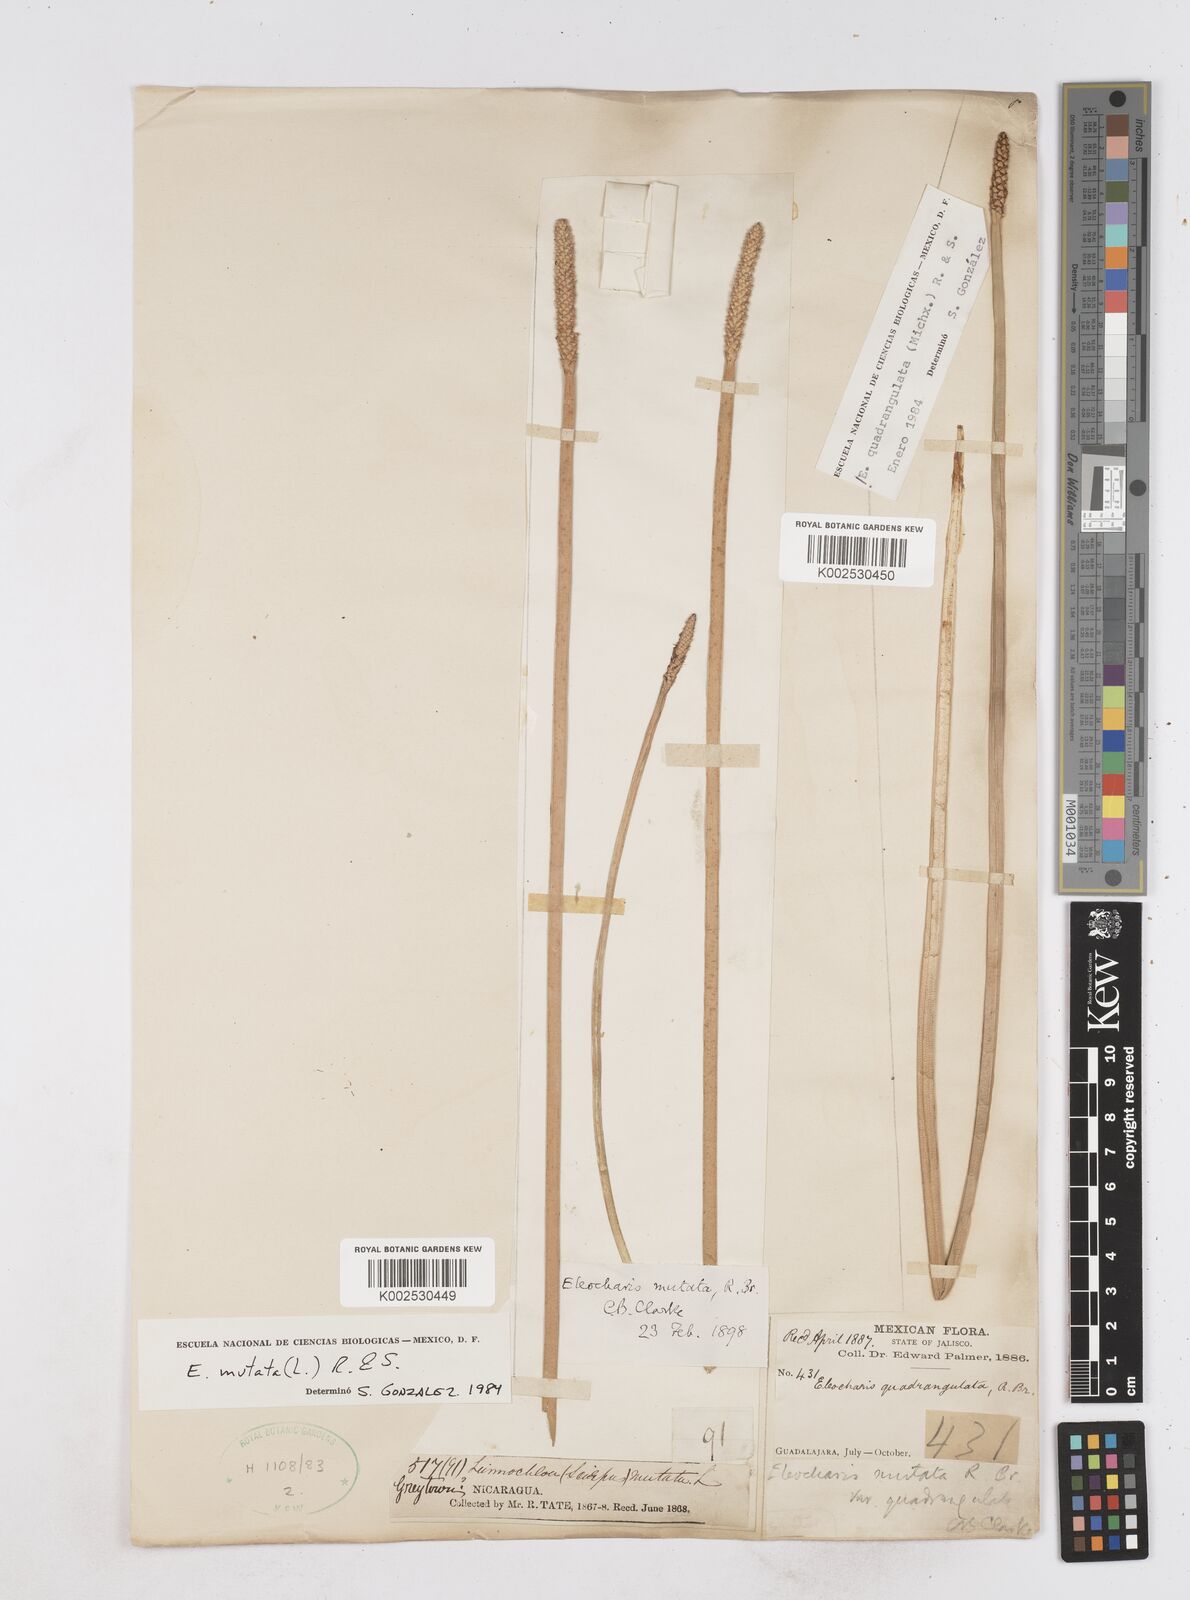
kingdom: Plantae
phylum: Tracheophyta
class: Liliopsida
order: Poales
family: Cyperaceae
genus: Eleocharis
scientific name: Eleocharis mutata
